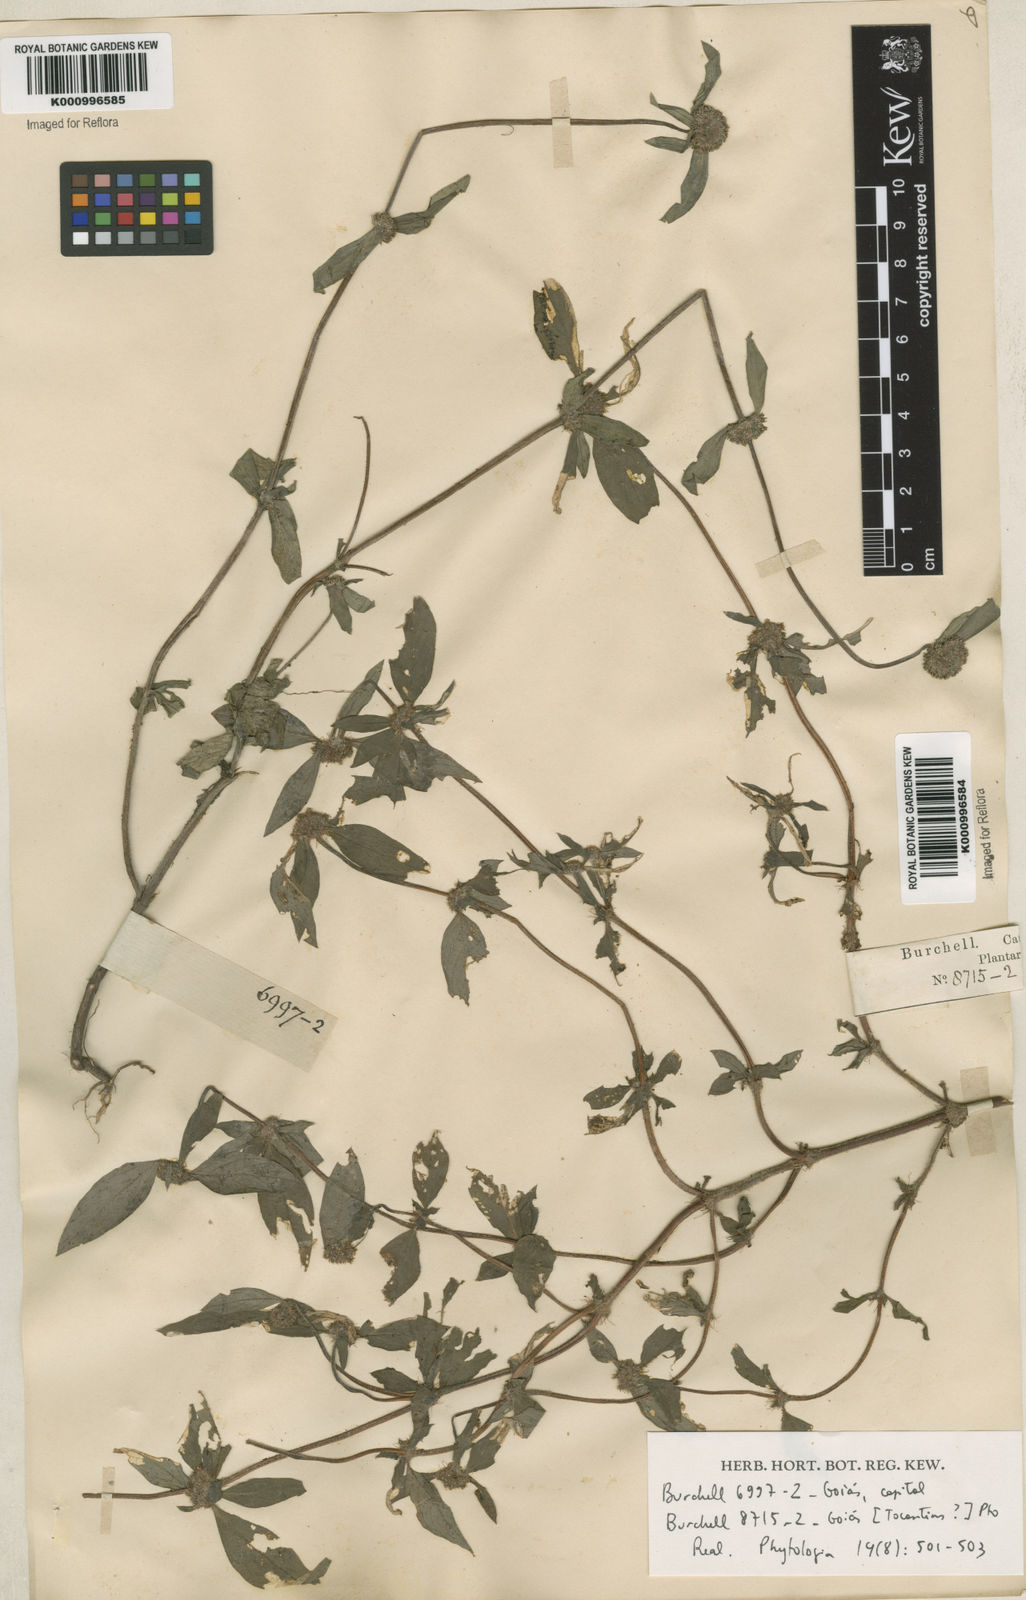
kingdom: Plantae
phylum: Tracheophyta
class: Magnoliopsida
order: Gentianales
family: Rubiaceae
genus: Spermacoce
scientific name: Spermacoce capitata
